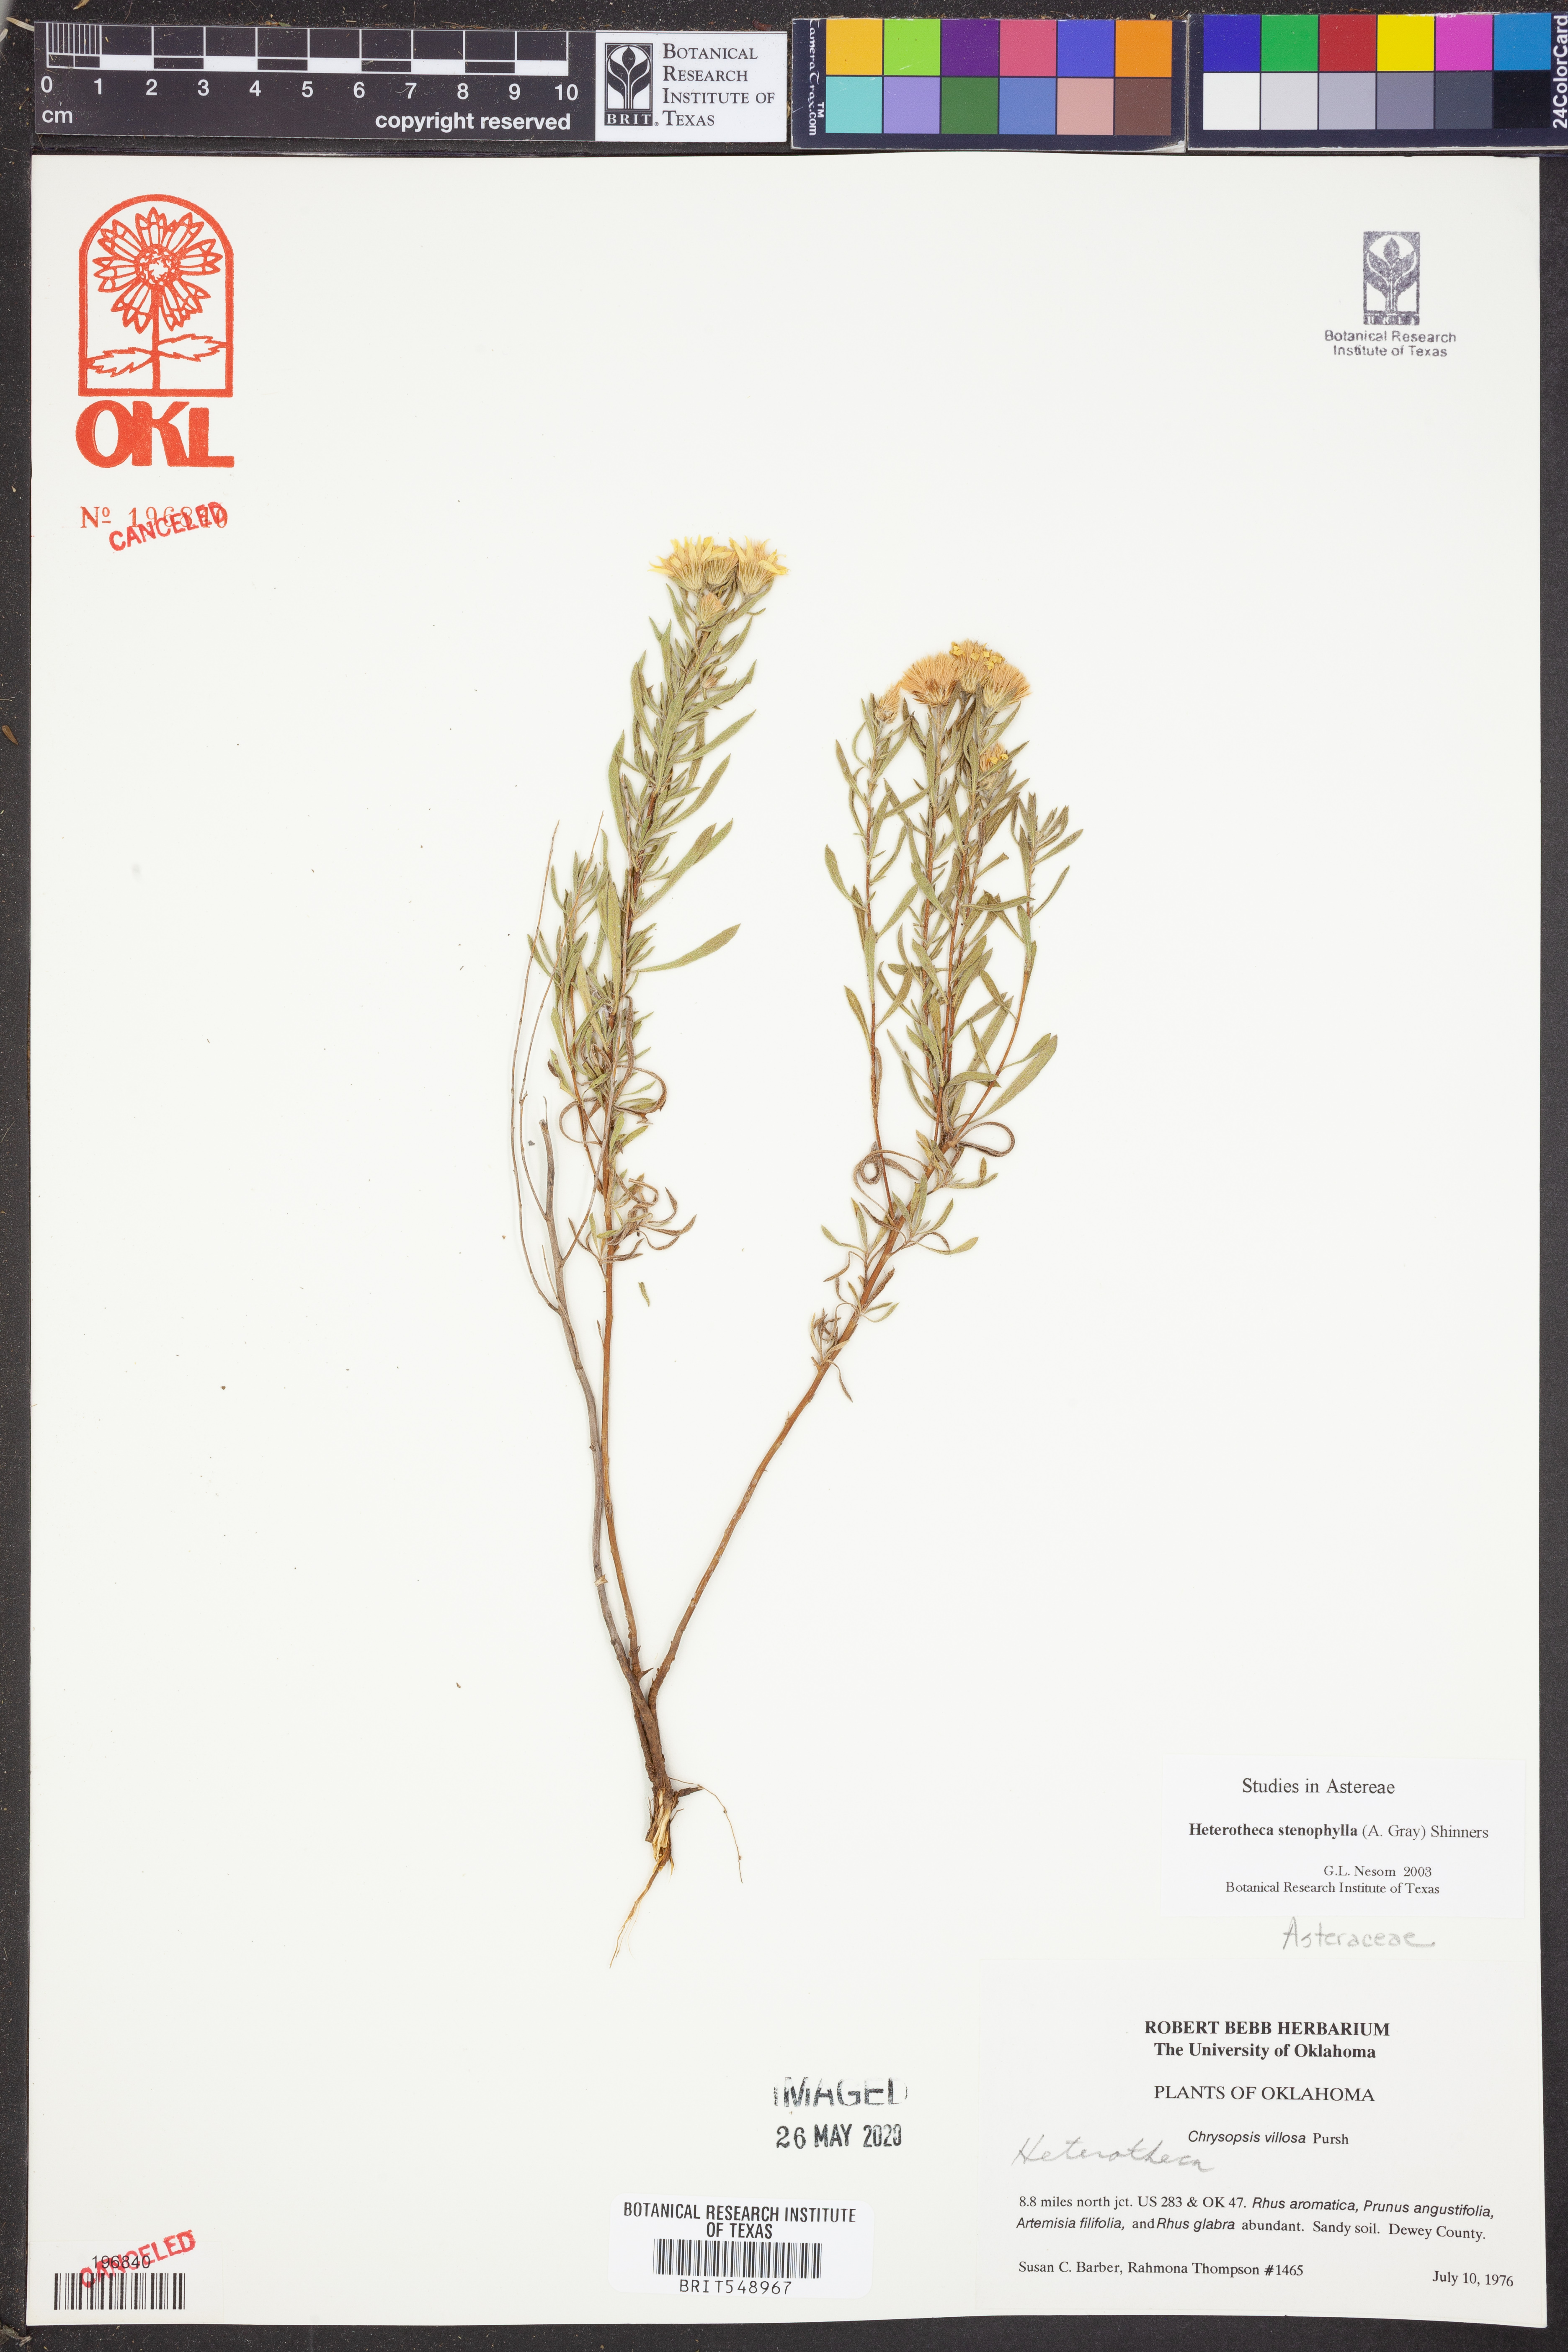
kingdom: Plantae
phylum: Tracheophyta
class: Magnoliopsida
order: Asterales
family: Asteraceae
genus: Heterotheca
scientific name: Heterotheca stenophylla
